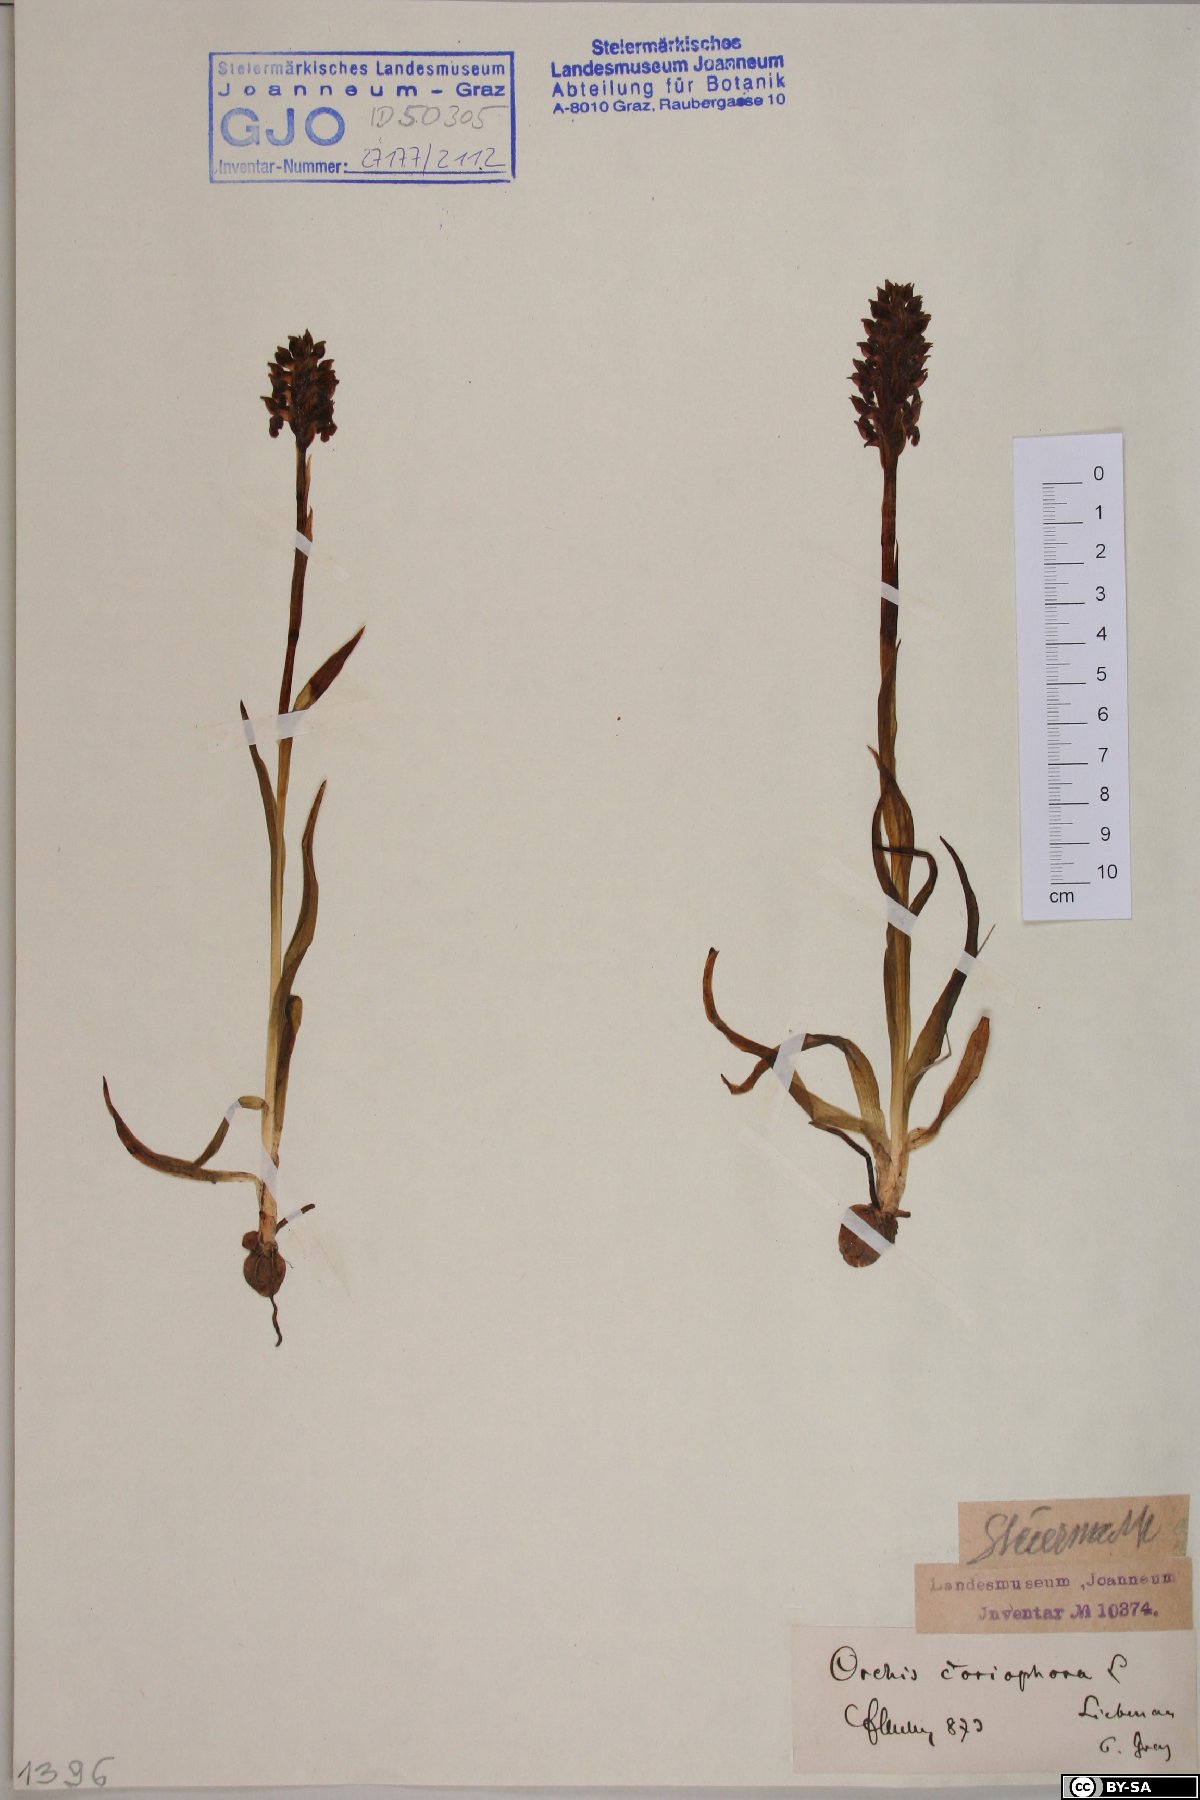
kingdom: Plantae
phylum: Tracheophyta
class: Liliopsida
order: Asparagales
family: Orchidaceae
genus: Anacamptis
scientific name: Anacamptis coriophora
